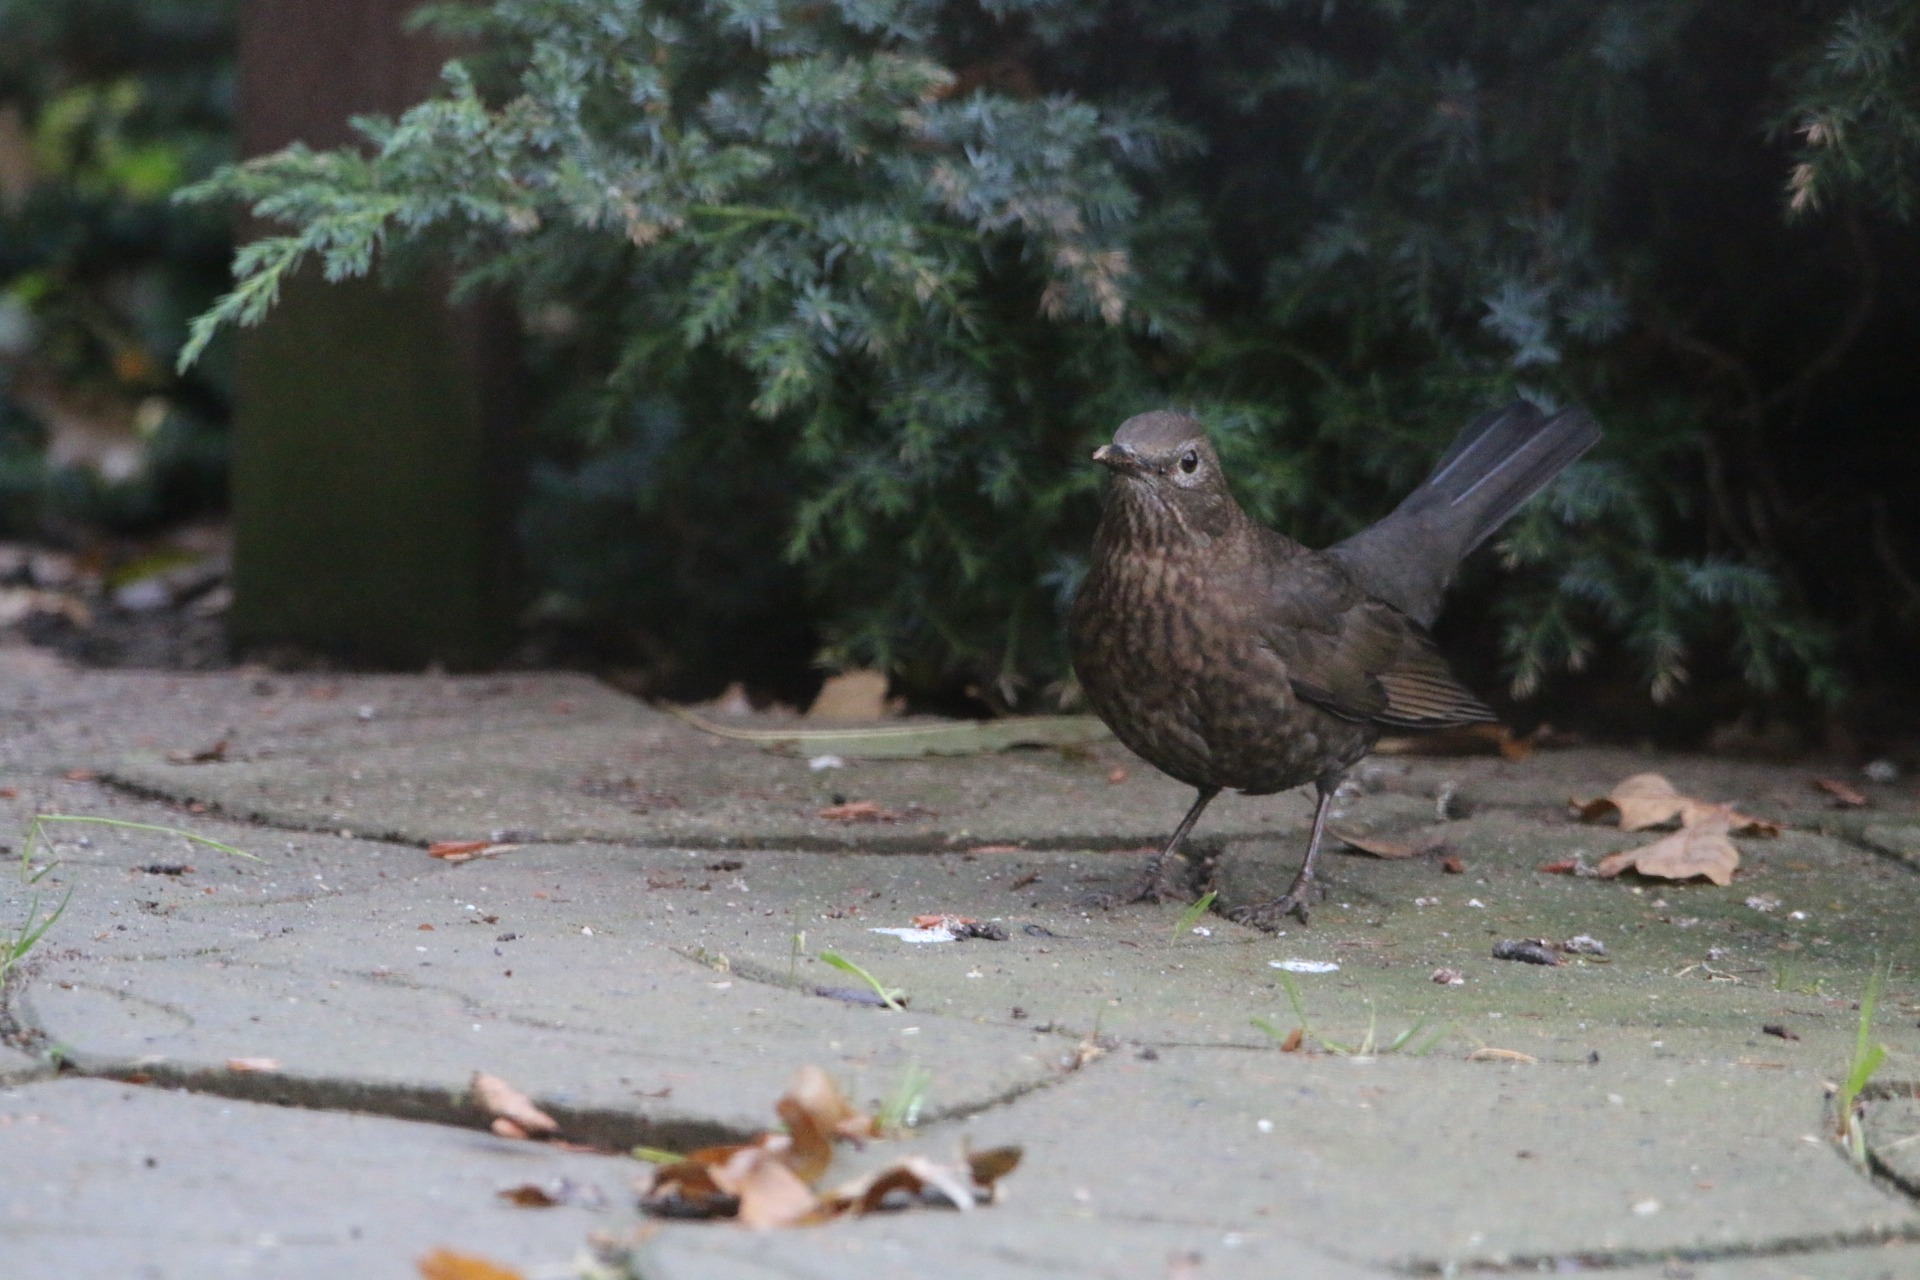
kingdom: Animalia
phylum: Chordata
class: Aves
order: Passeriformes
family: Turdidae
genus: Turdus
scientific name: Turdus merula
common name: Solsort
